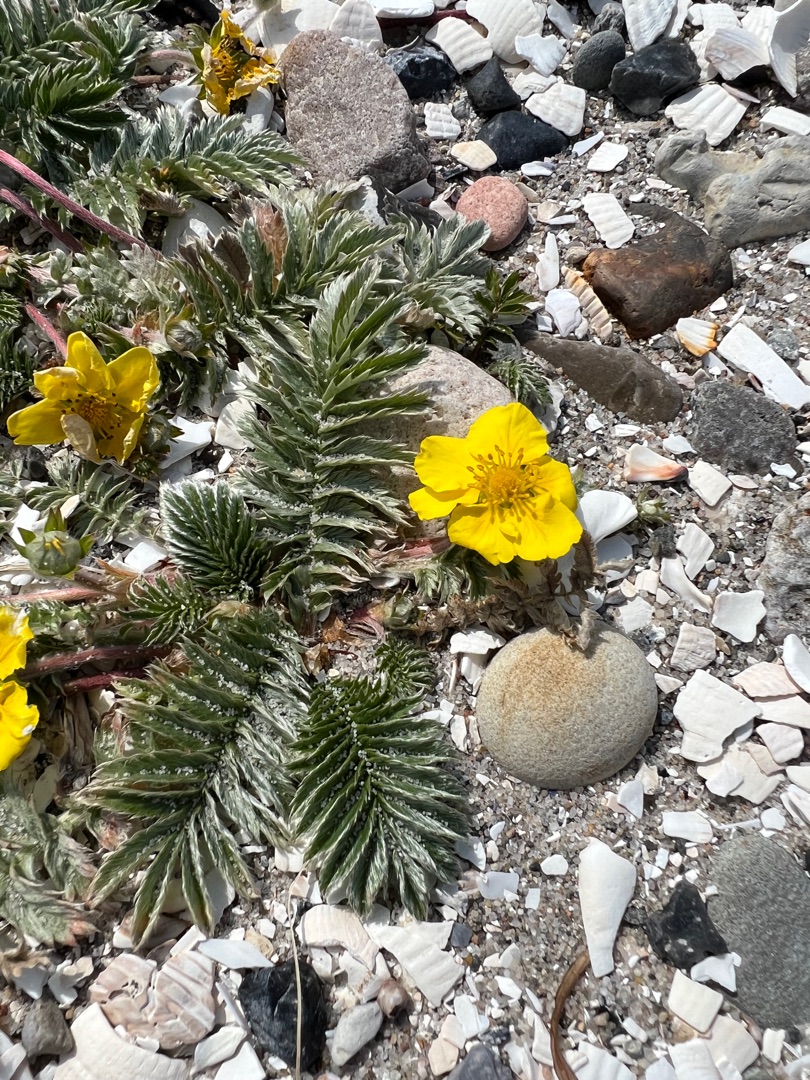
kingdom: Plantae
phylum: Tracheophyta
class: Magnoliopsida
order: Rosales
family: Rosaceae
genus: Argentina
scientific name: Argentina anserina
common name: Gåsepotentil
